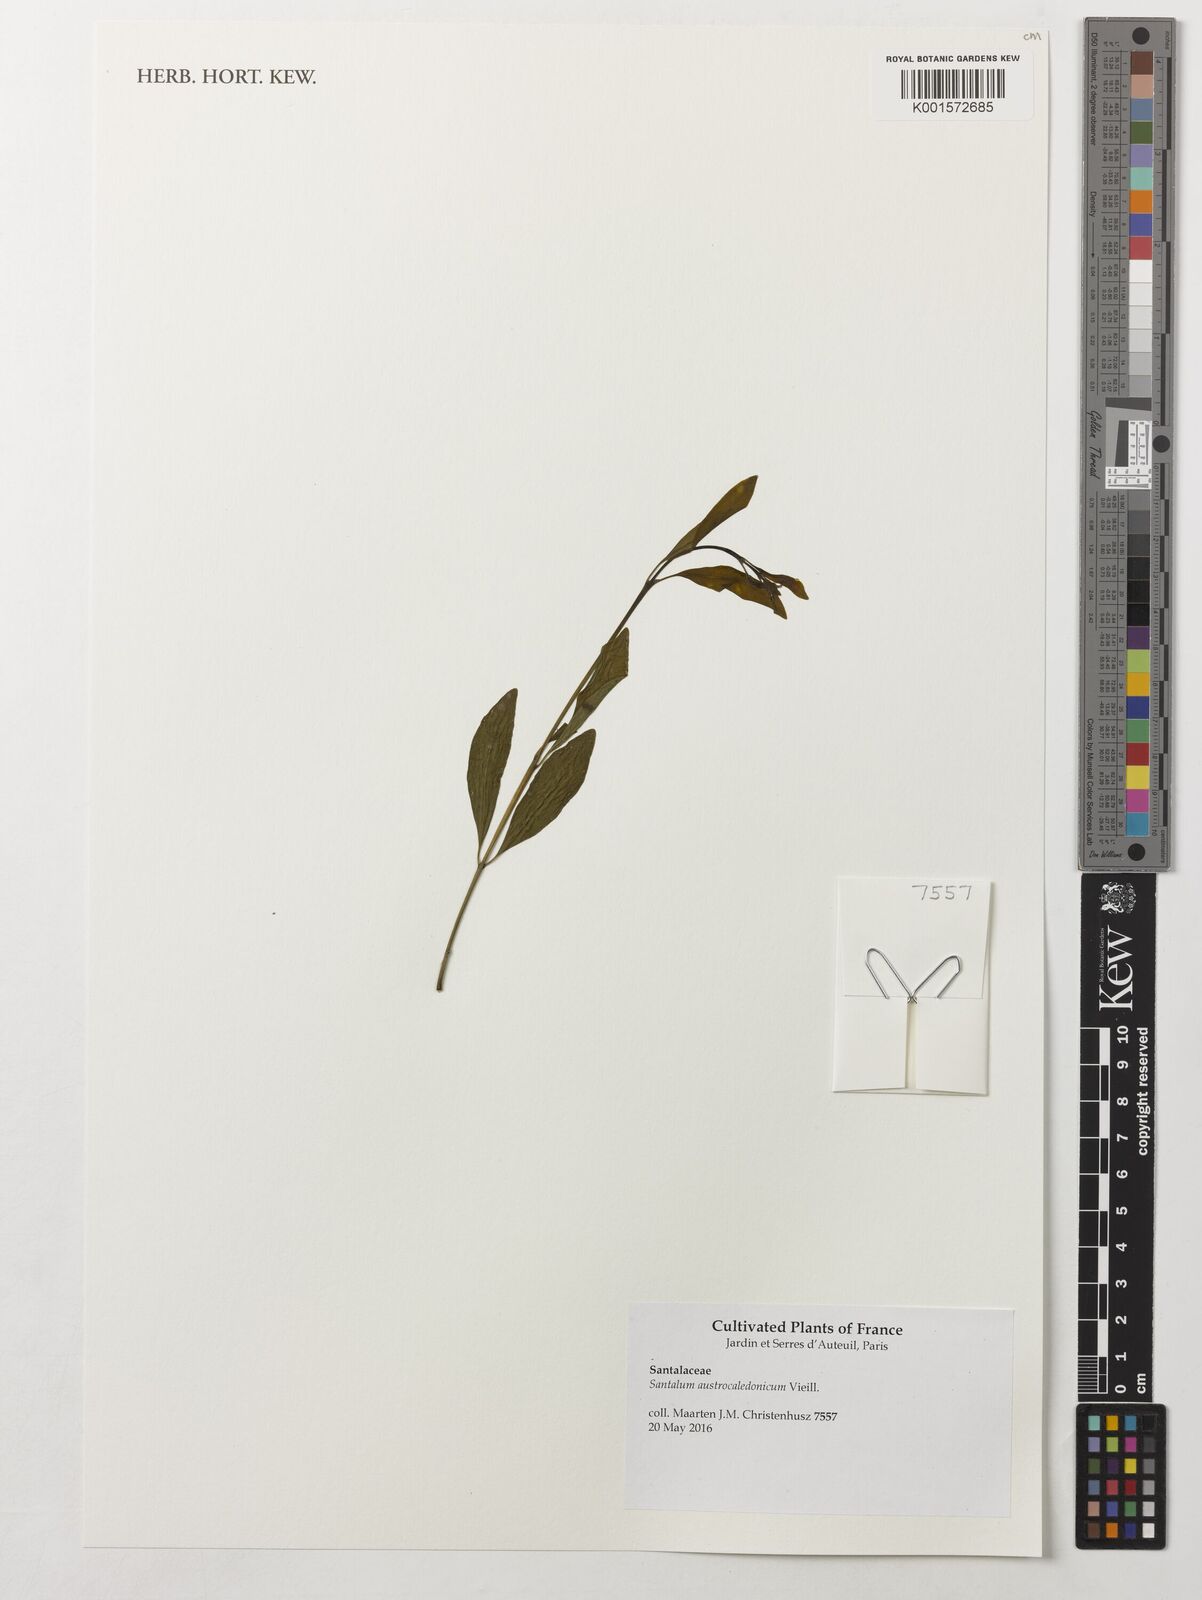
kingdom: Plantae
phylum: Tracheophyta
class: Magnoliopsida
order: Santalales
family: Santalaceae
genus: Santalum
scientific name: Santalum austrocaledonicum
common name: Coral sea sandalwood
